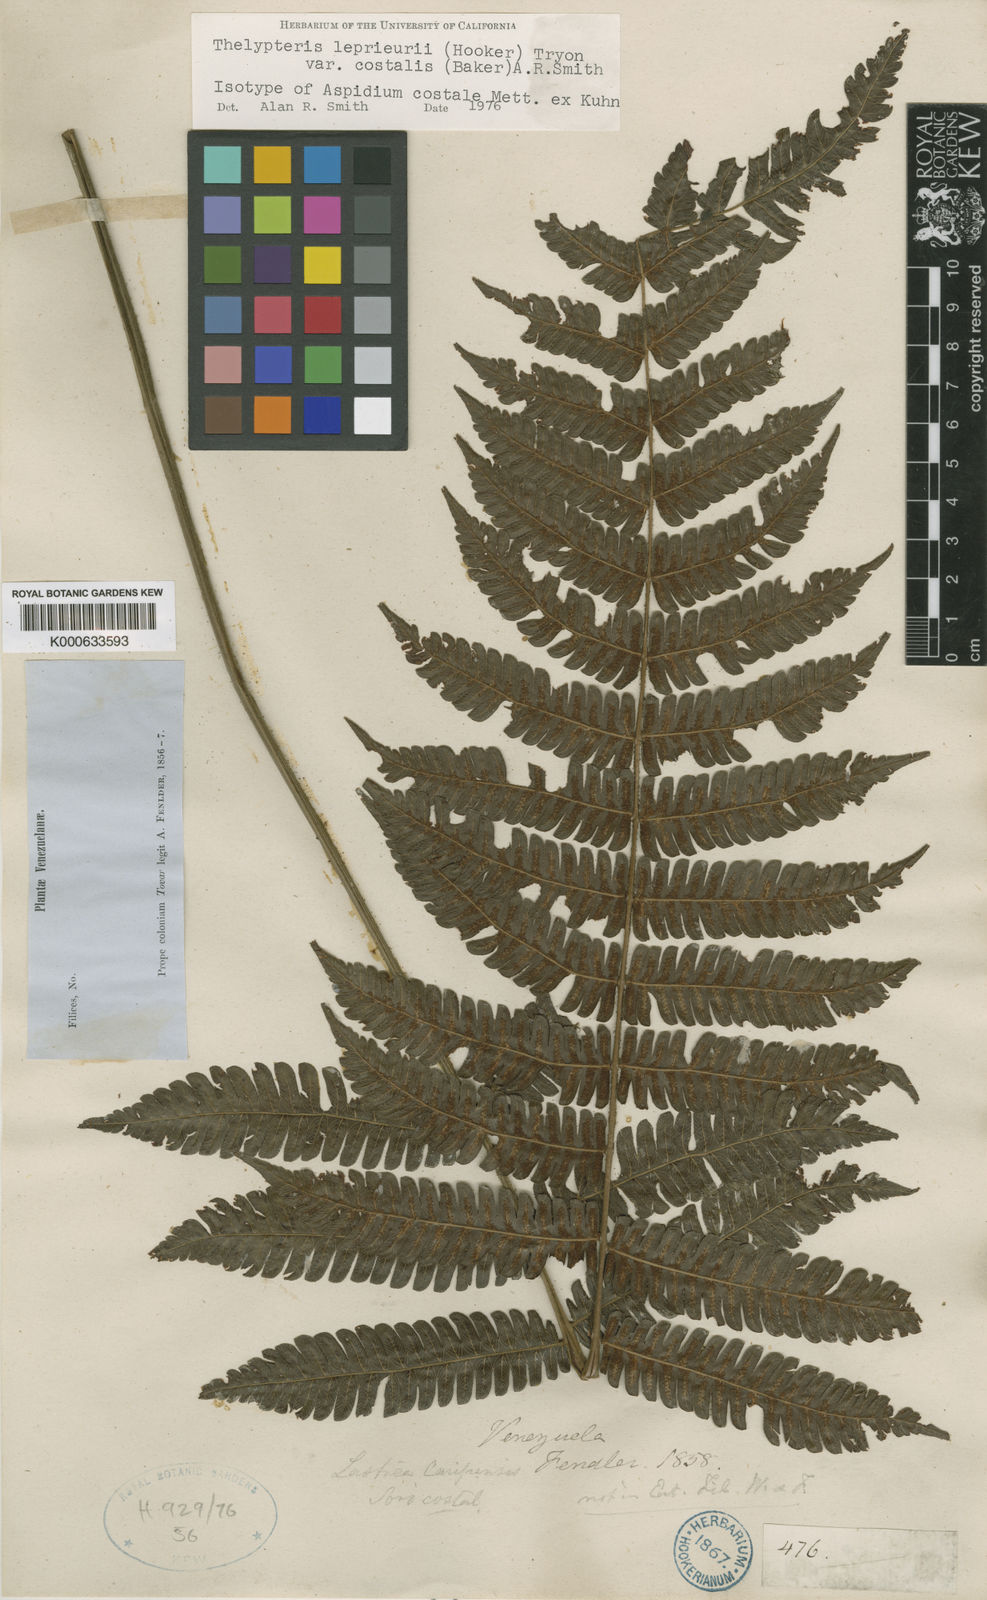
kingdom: Plantae
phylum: Tracheophyta
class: Polypodiopsida
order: Polypodiales
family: Thelypteridaceae
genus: Steiropteris
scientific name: Steiropteris leprieurii
